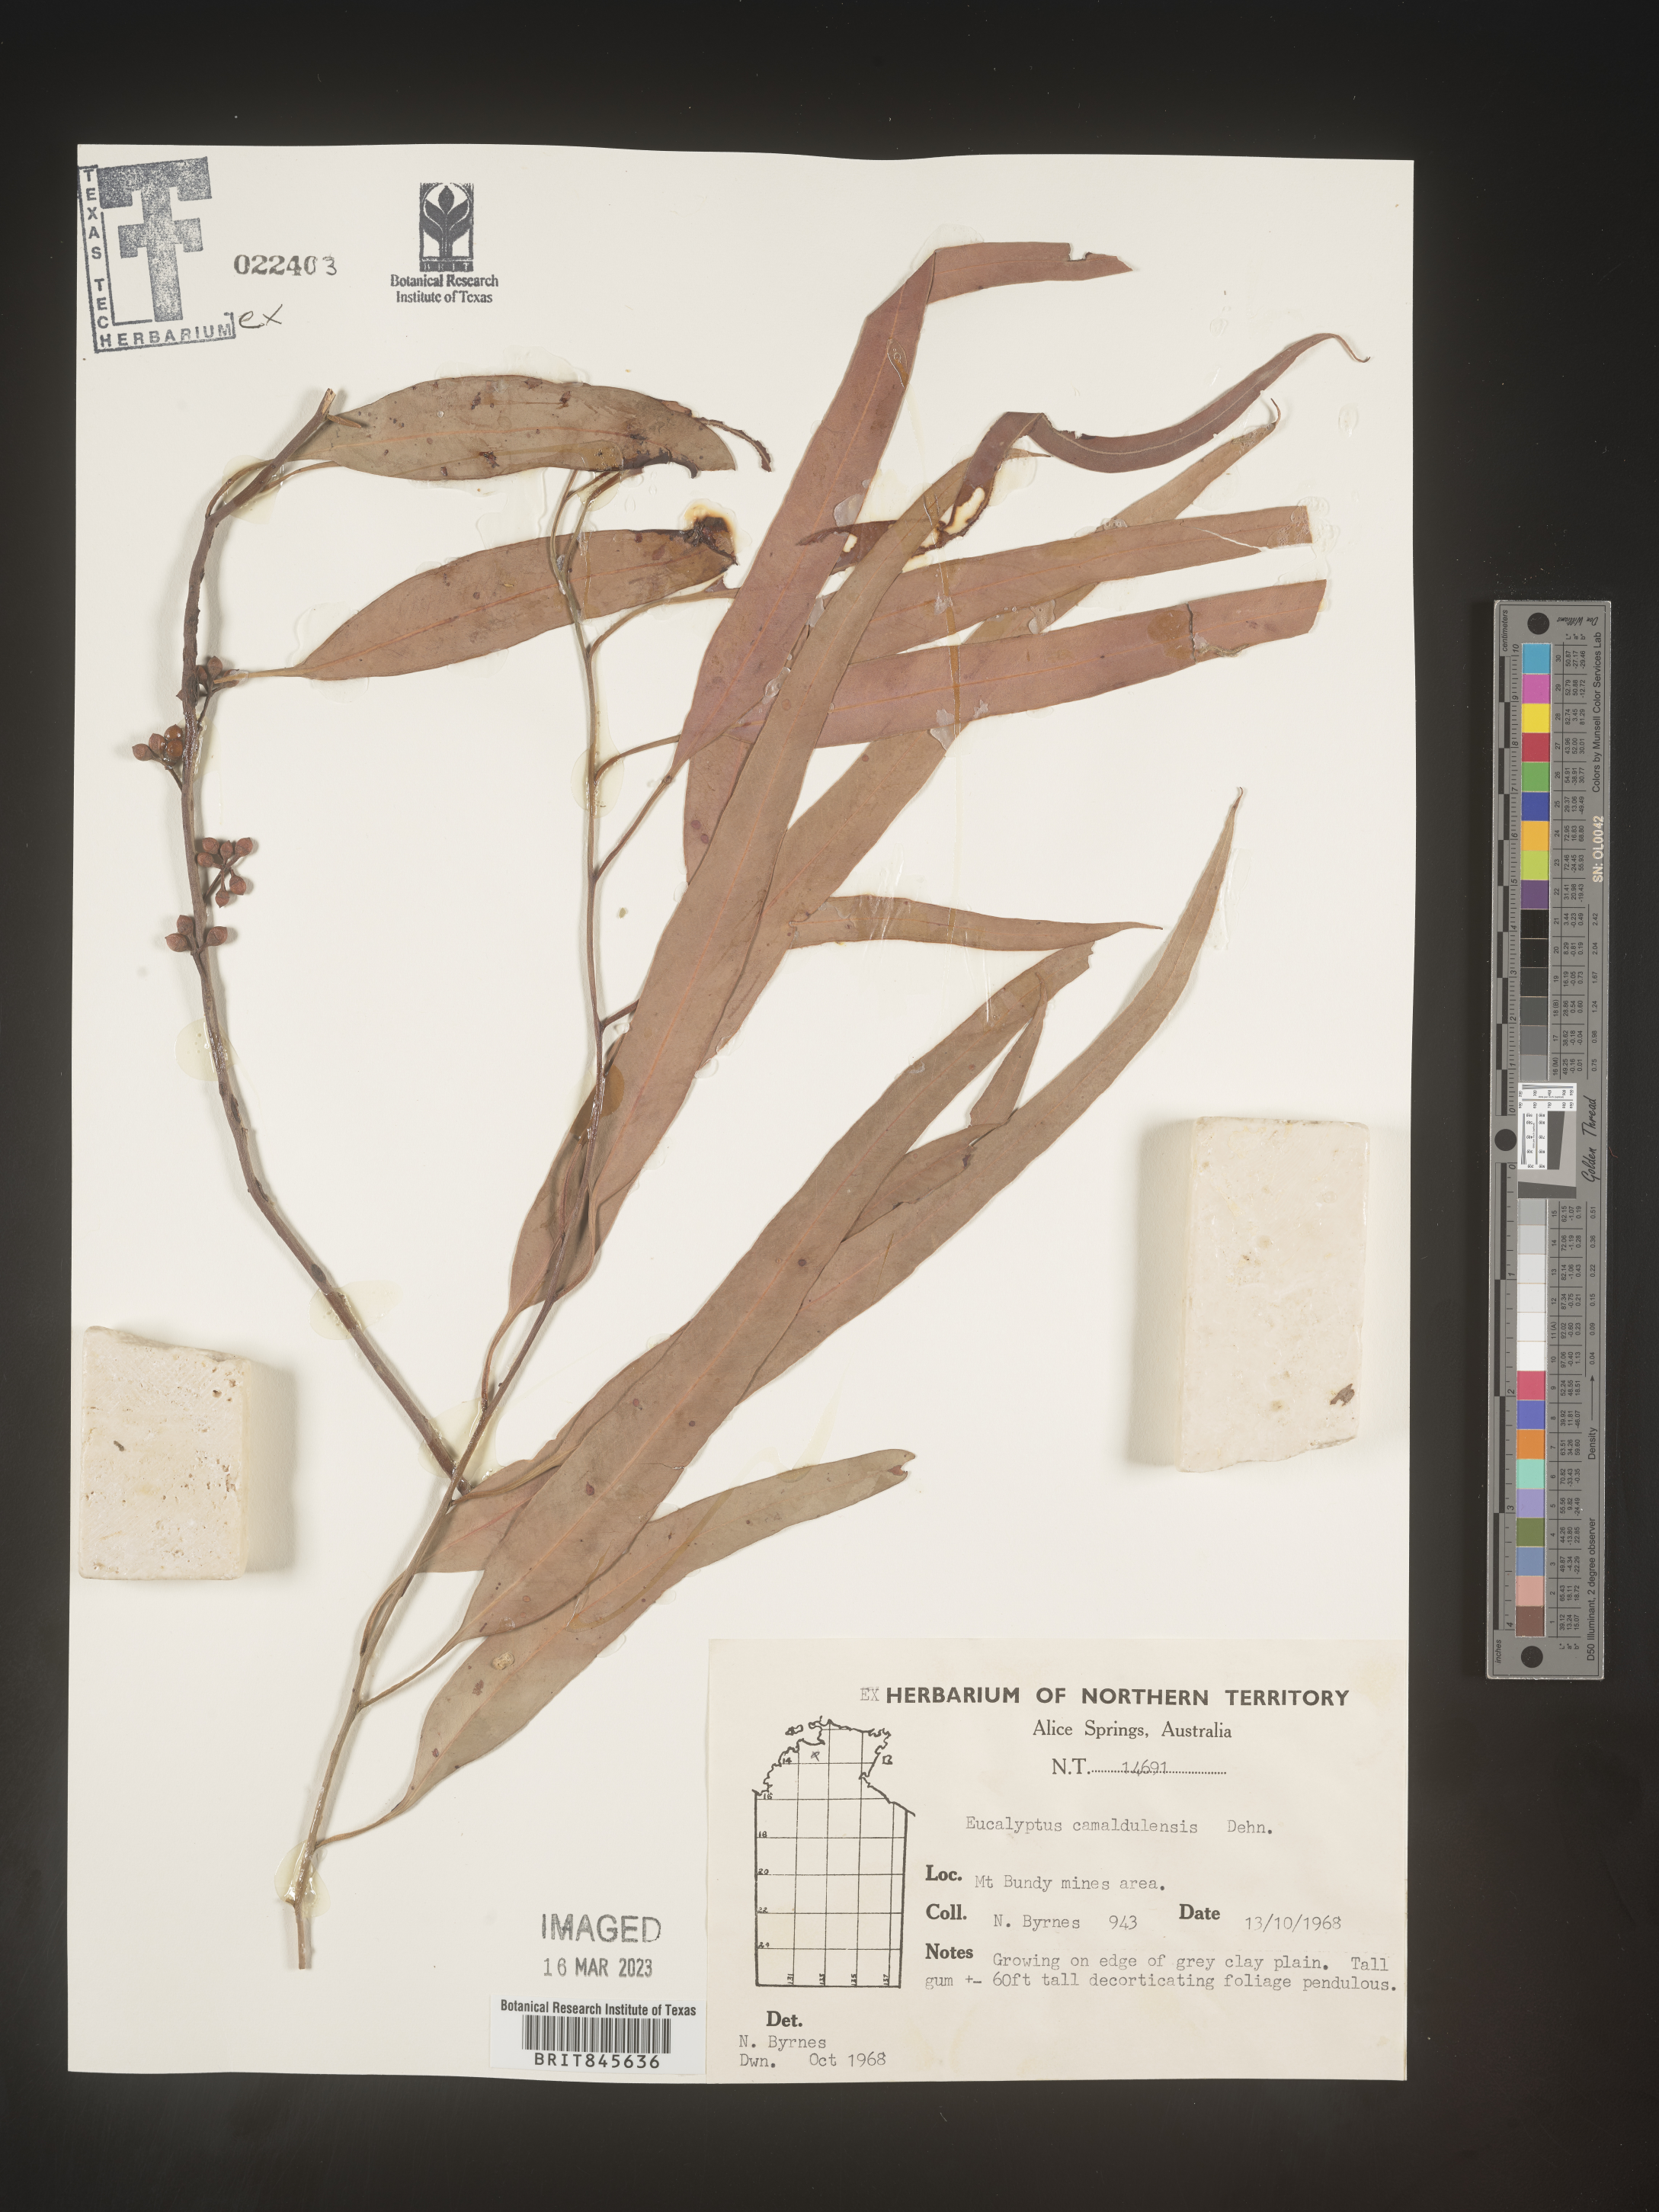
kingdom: Plantae
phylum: Tracheophyta
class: Magnoliopsida
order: Myrtales
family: Myrtaceae
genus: Eucalyptus
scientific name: Eucalyptus
